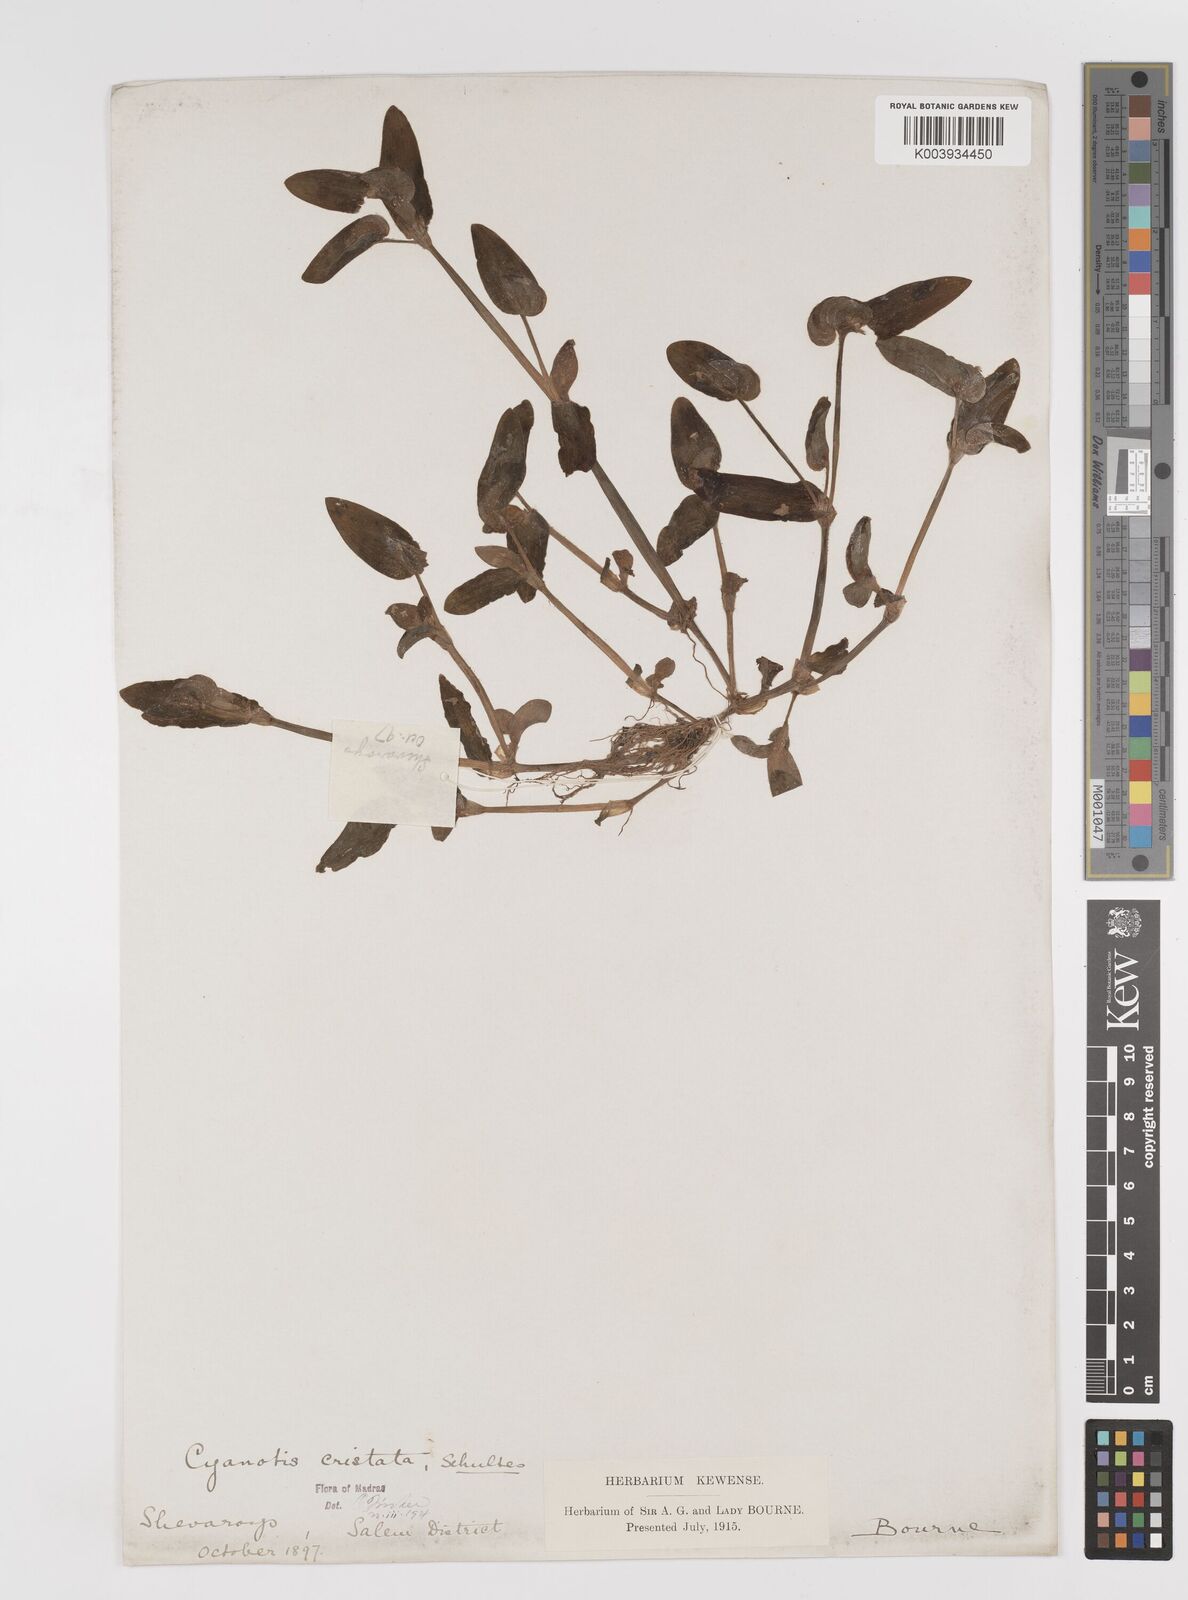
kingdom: Plantae
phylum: Tracheophyta
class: Liliopsida
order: Commelinales
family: Commelinaceae
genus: Cyanotis
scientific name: Cyanotis cristata
